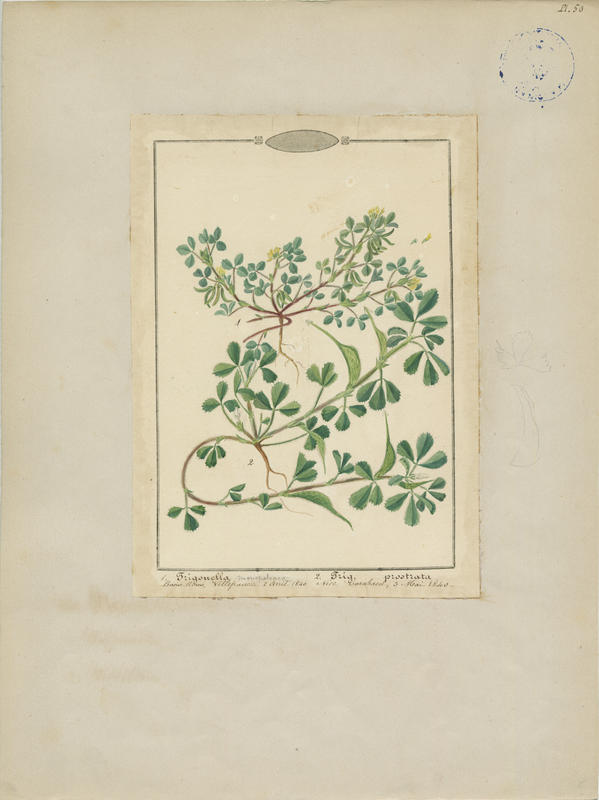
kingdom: Plantae
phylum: Tracheophyta
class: Magnoliopsida
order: Fabales
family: Fabaceae
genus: Trigonella
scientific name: Trigonella gladiata
